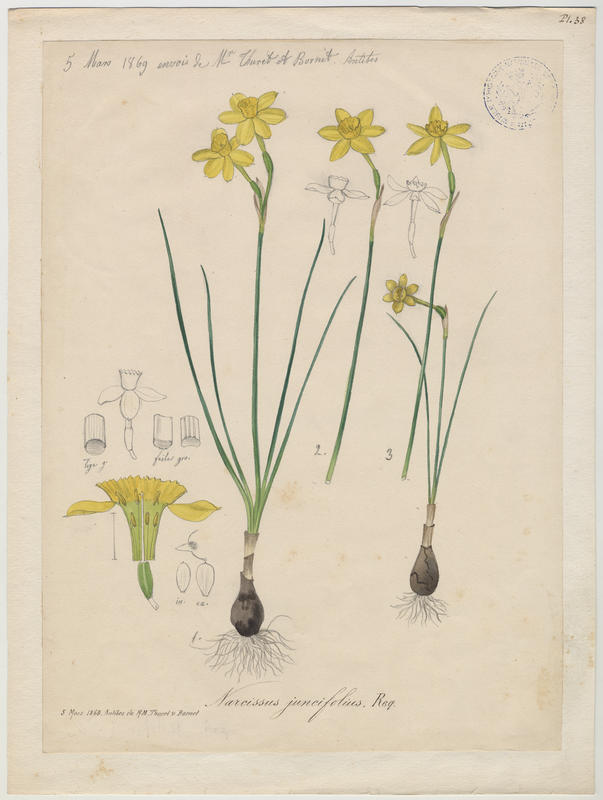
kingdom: Plantae
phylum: Tracheophyta
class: Liliopsida
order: Asparagales
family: Amaryllidaceae
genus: Narcissus
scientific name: Narcissus assoanus
